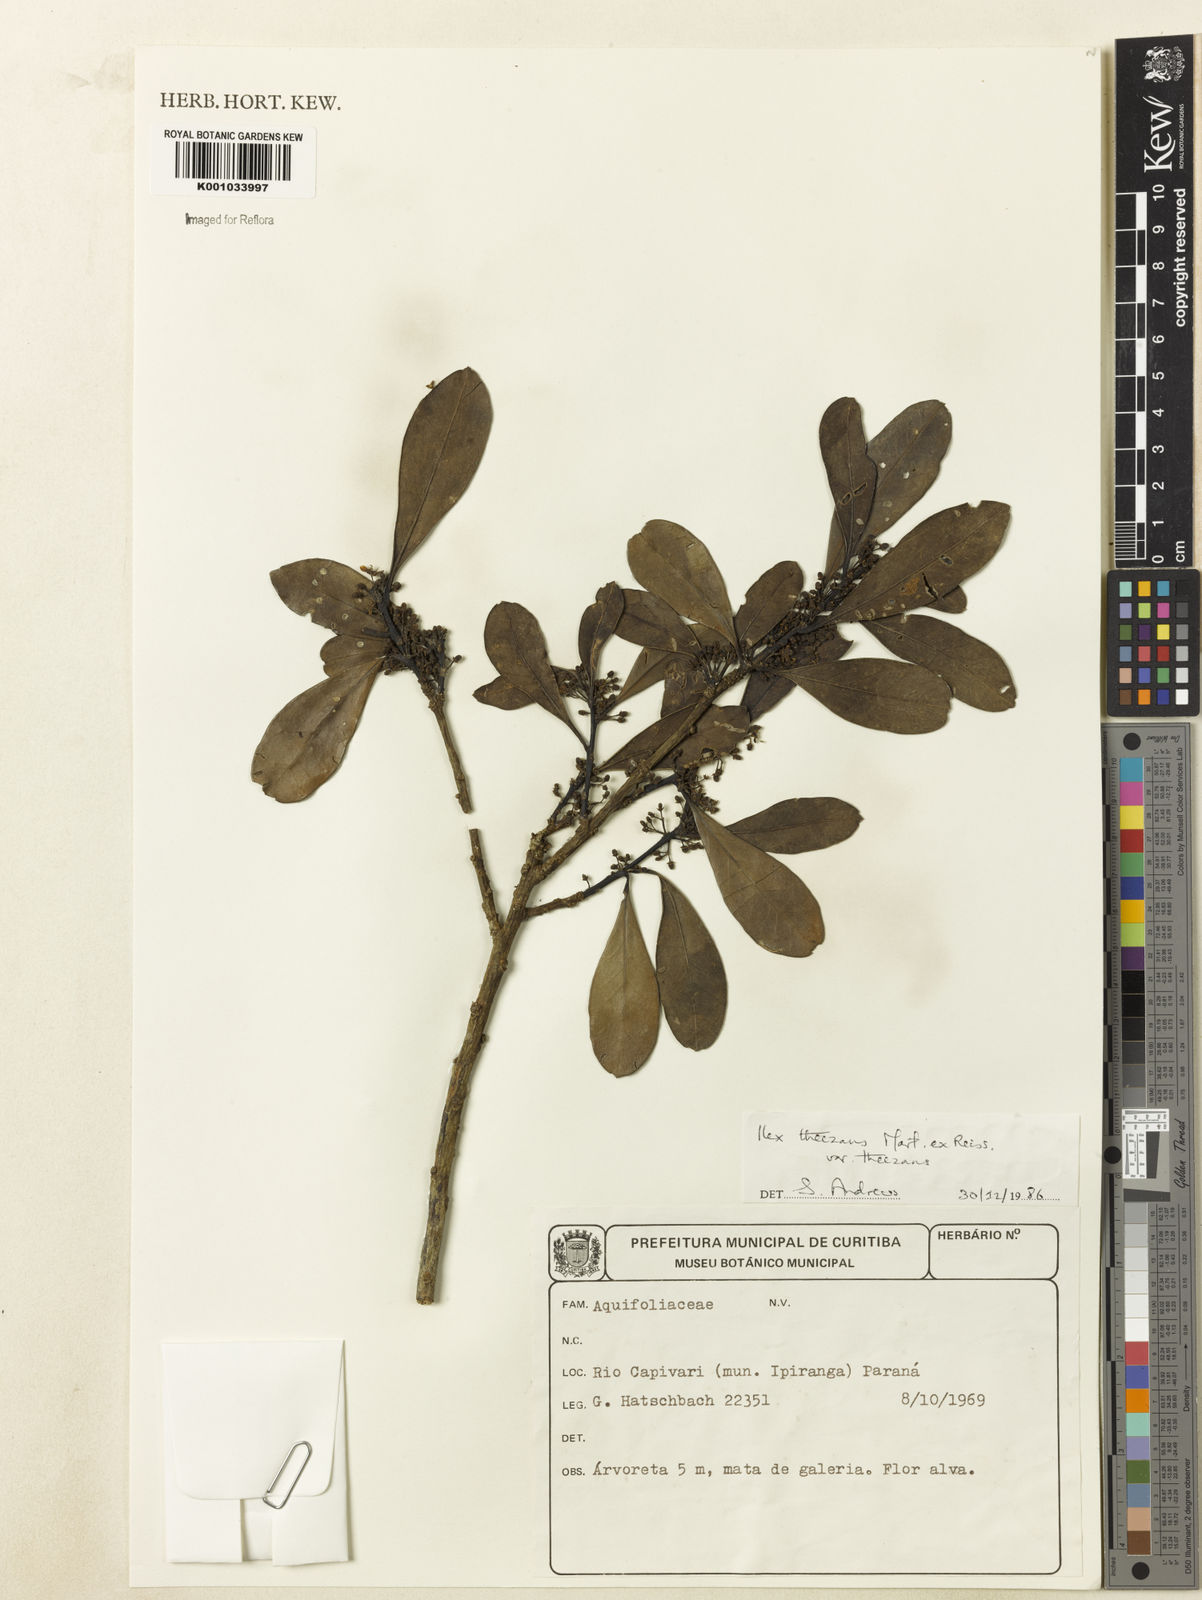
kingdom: Plantae
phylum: Tracheophyta
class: Magnoliopsida
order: Aquifoliales
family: Aquifoliaceae
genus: Ilex
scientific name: Ilex theezans
